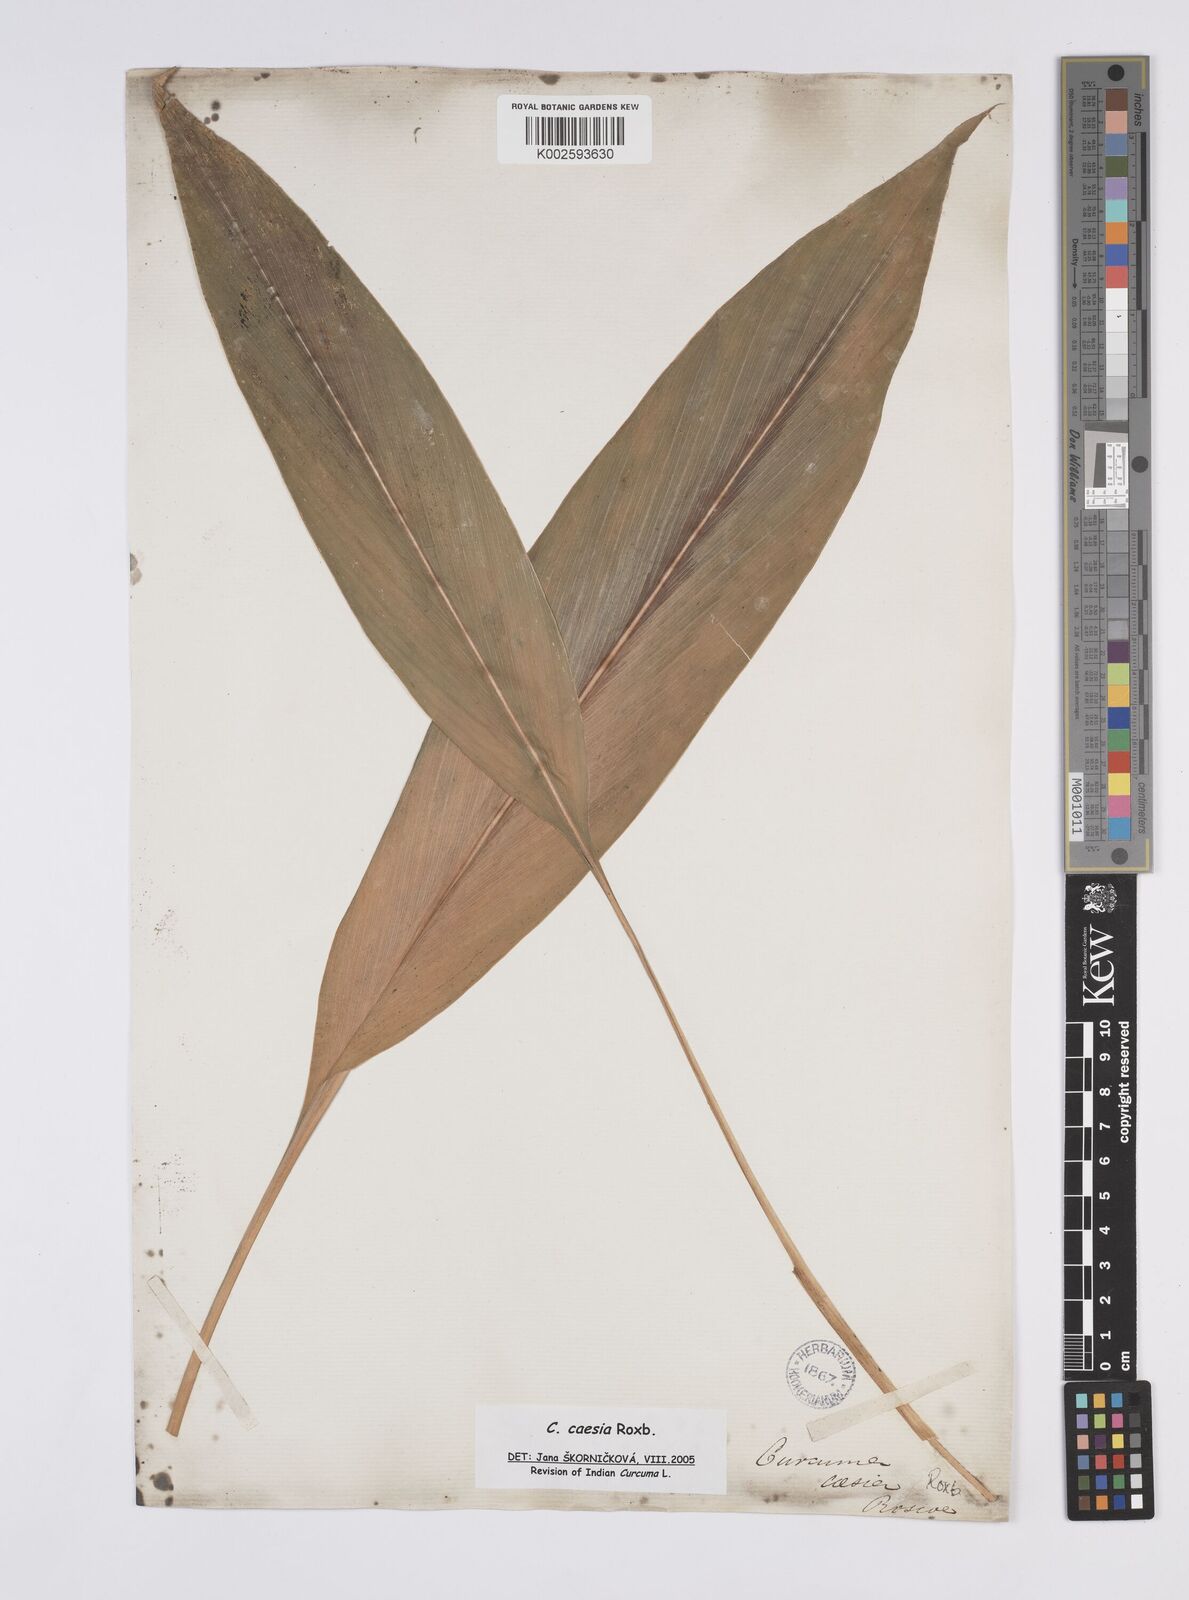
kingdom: Plantae
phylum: Tracheophyta
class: Liliopsida
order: Zingiberales
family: Zingiberaceae
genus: Curcuma
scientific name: Curcuma caesia
